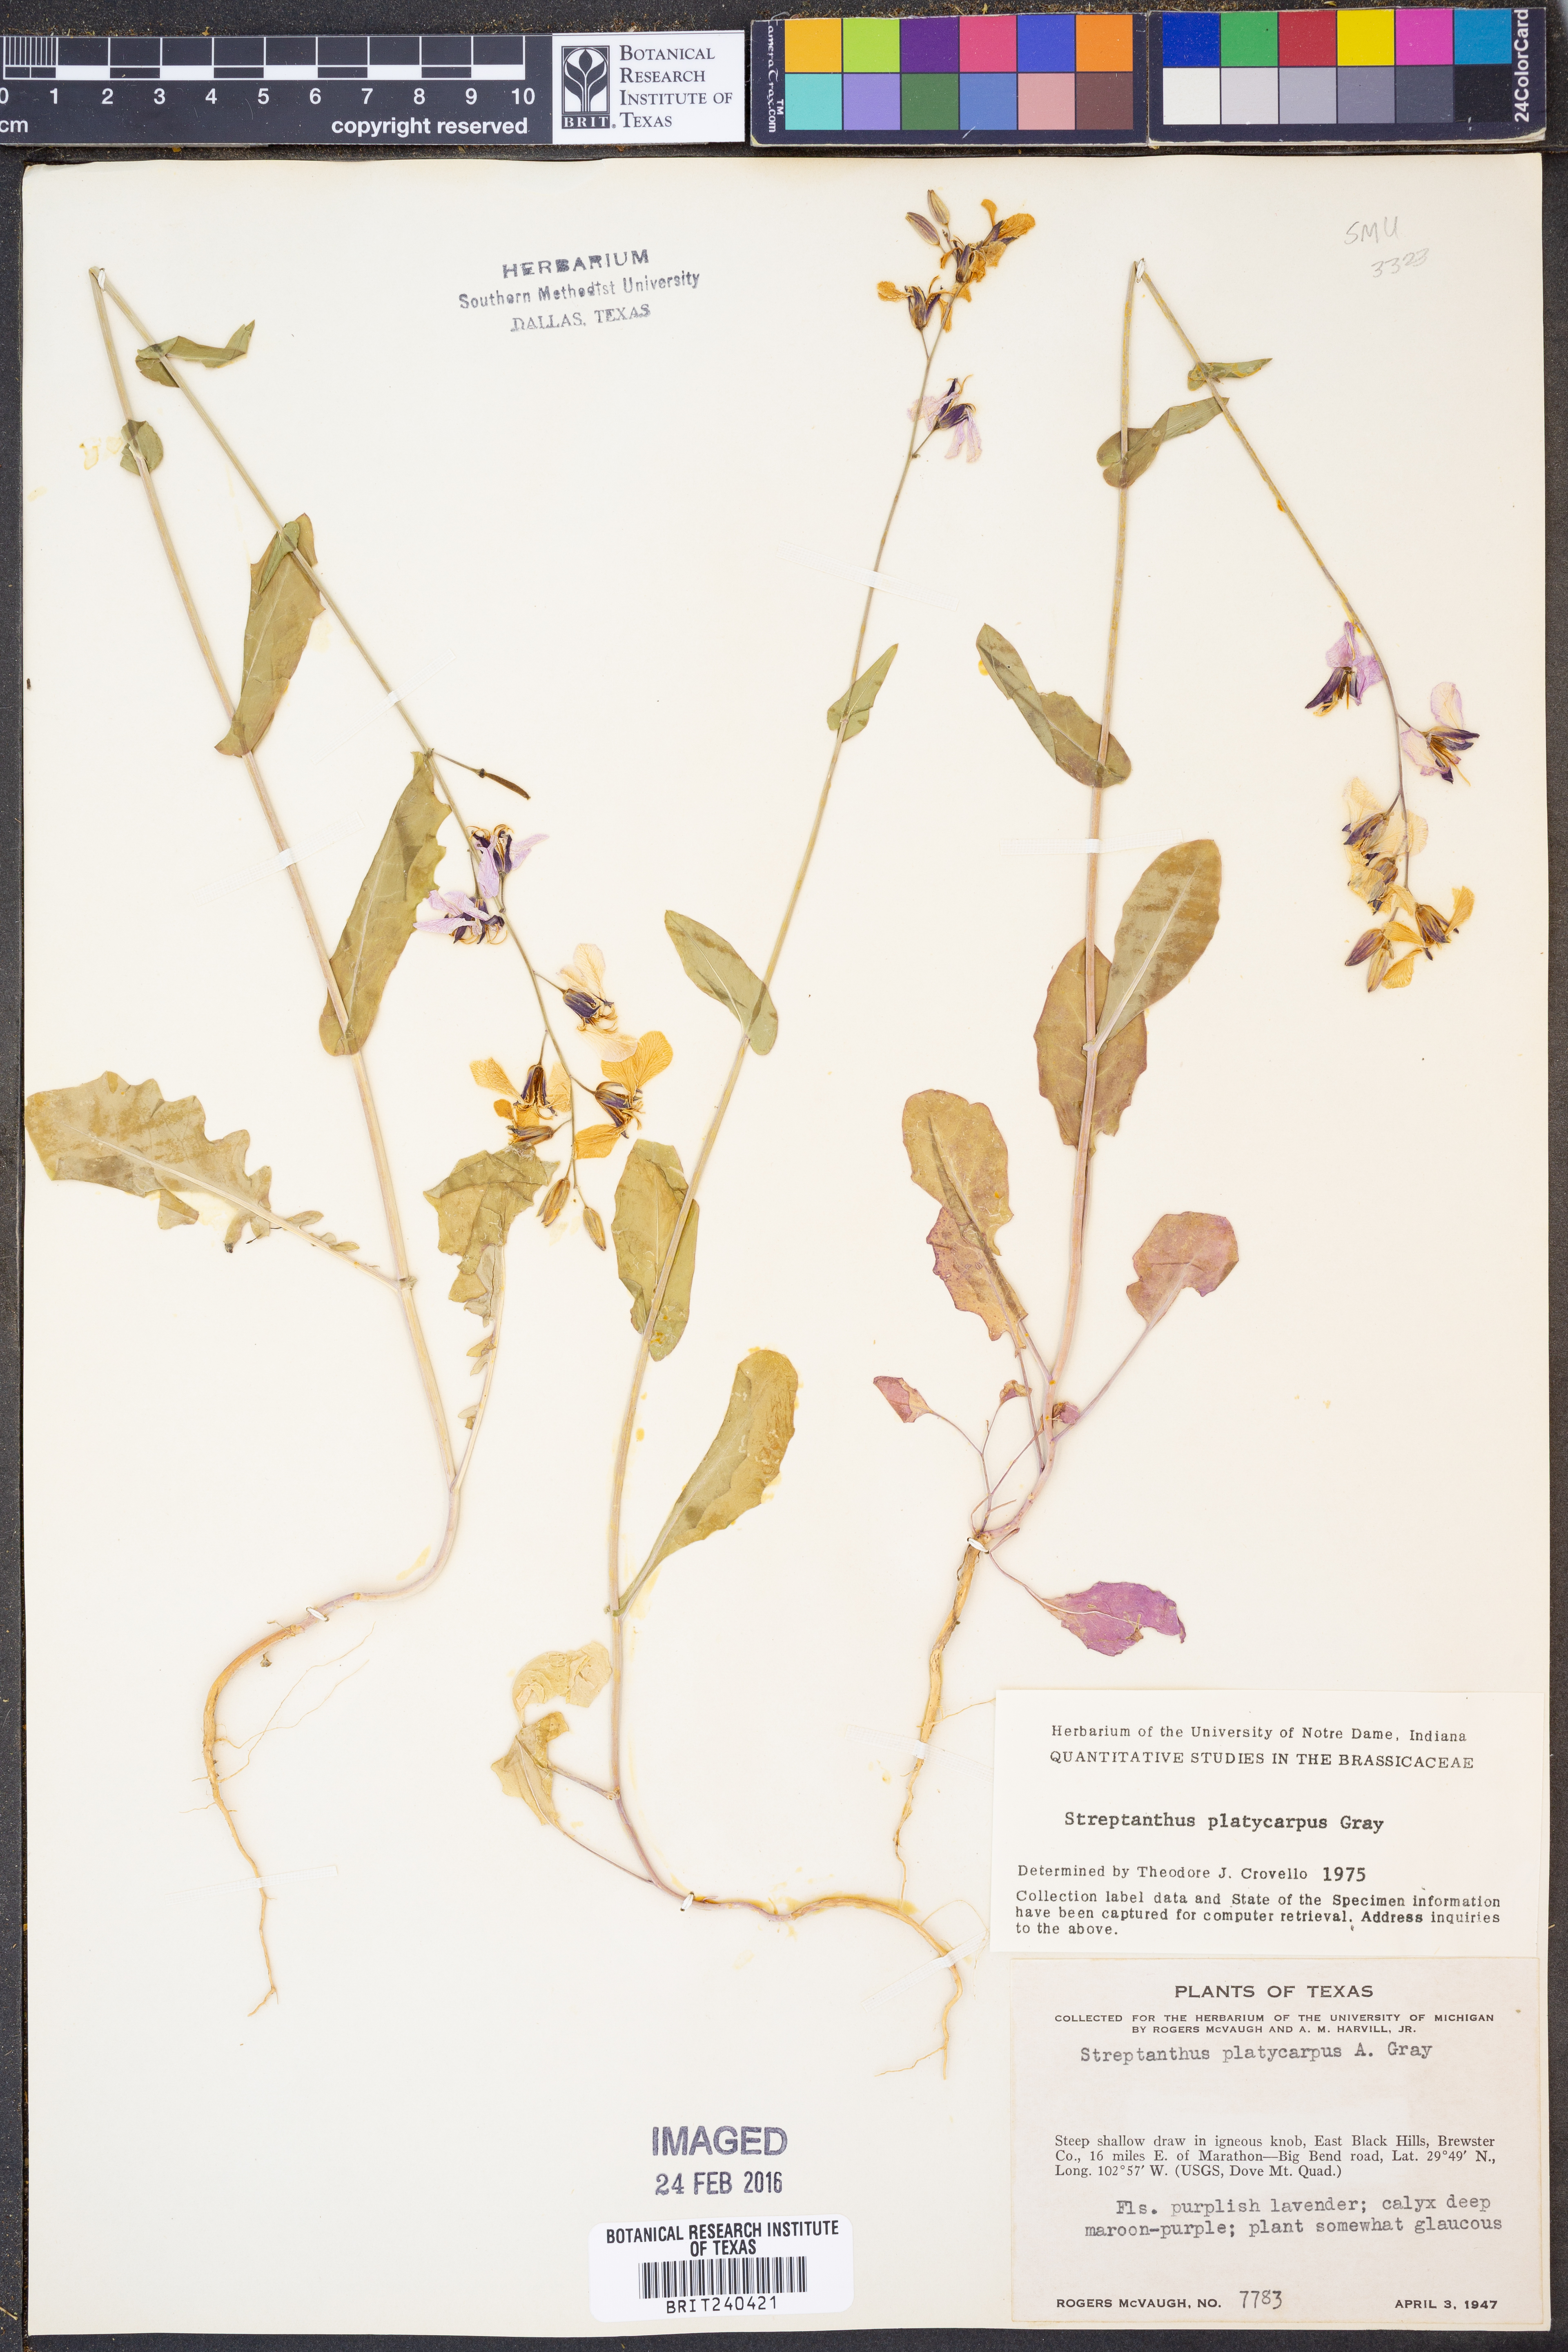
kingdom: Plantae
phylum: Tracheophyta
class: Magnoliopsida
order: Brassicales
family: Brassicaceae
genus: Streptanthus
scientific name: Streptanthus platycarpus
